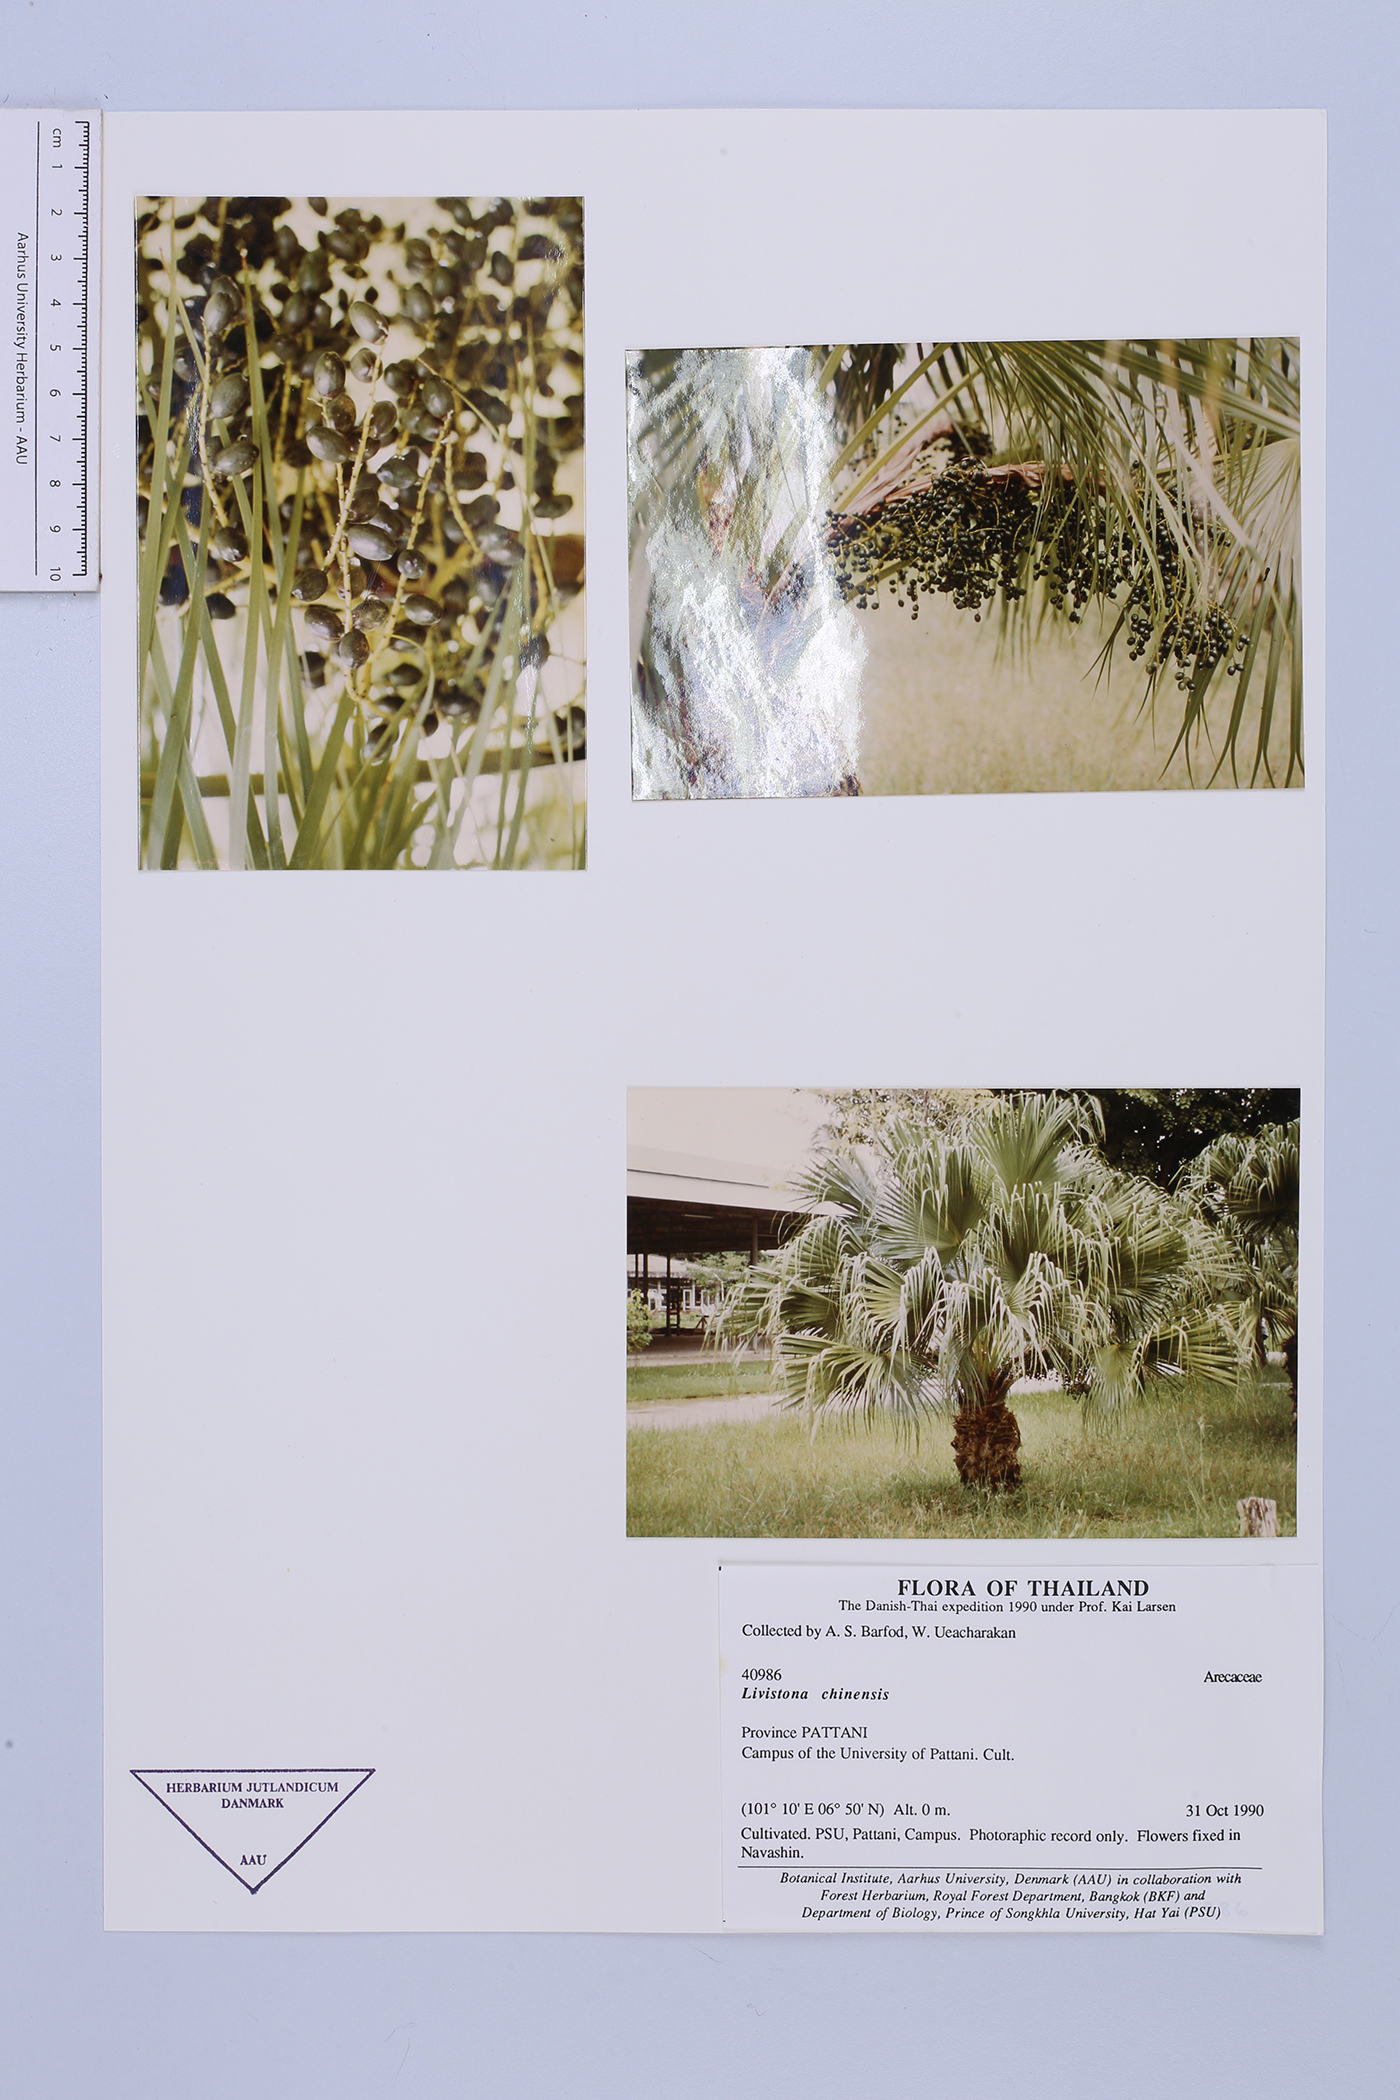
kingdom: Plantae
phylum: Tracheophyta
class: Liliopsida
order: Arecales
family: Arecaceae
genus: Livistona
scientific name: Livistona chinensis
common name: Fountain palm
